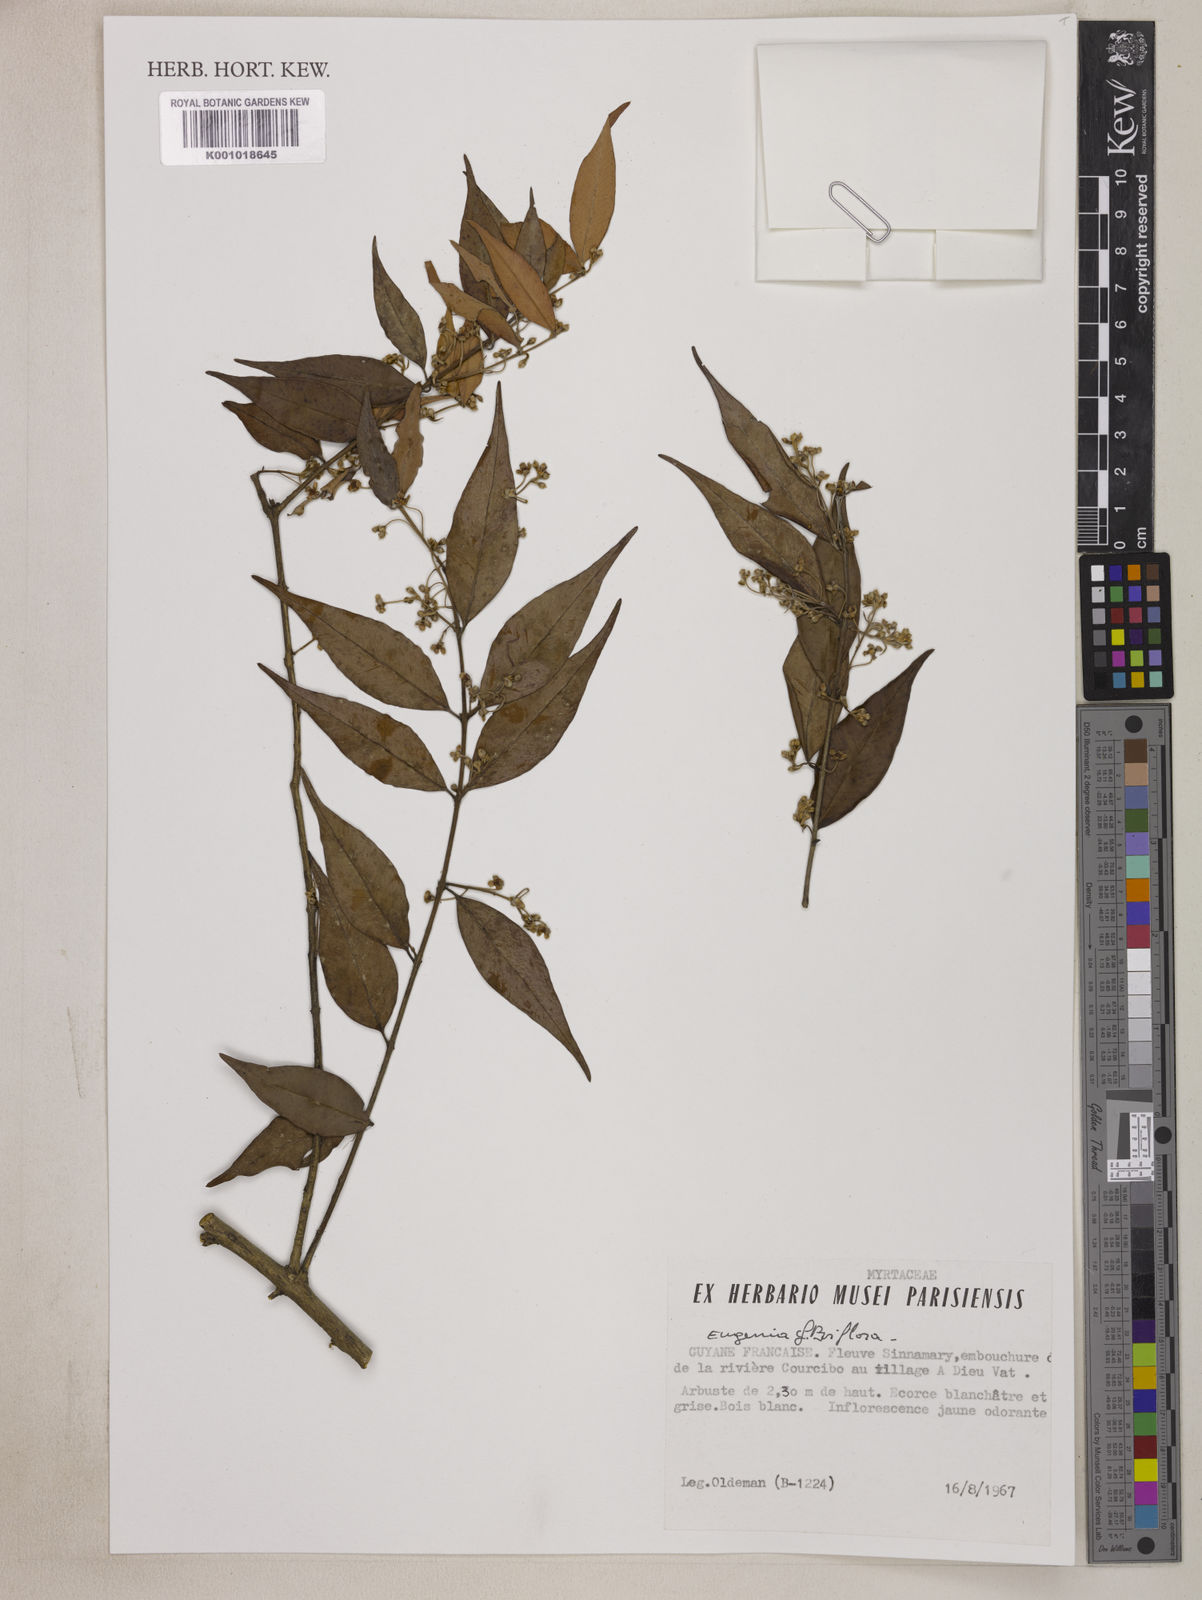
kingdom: Plantae
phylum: Tracheophyta
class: Magnoliopsida
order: Myrtales
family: Myrtaceae
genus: Eugenia
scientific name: Eugenia biflora
